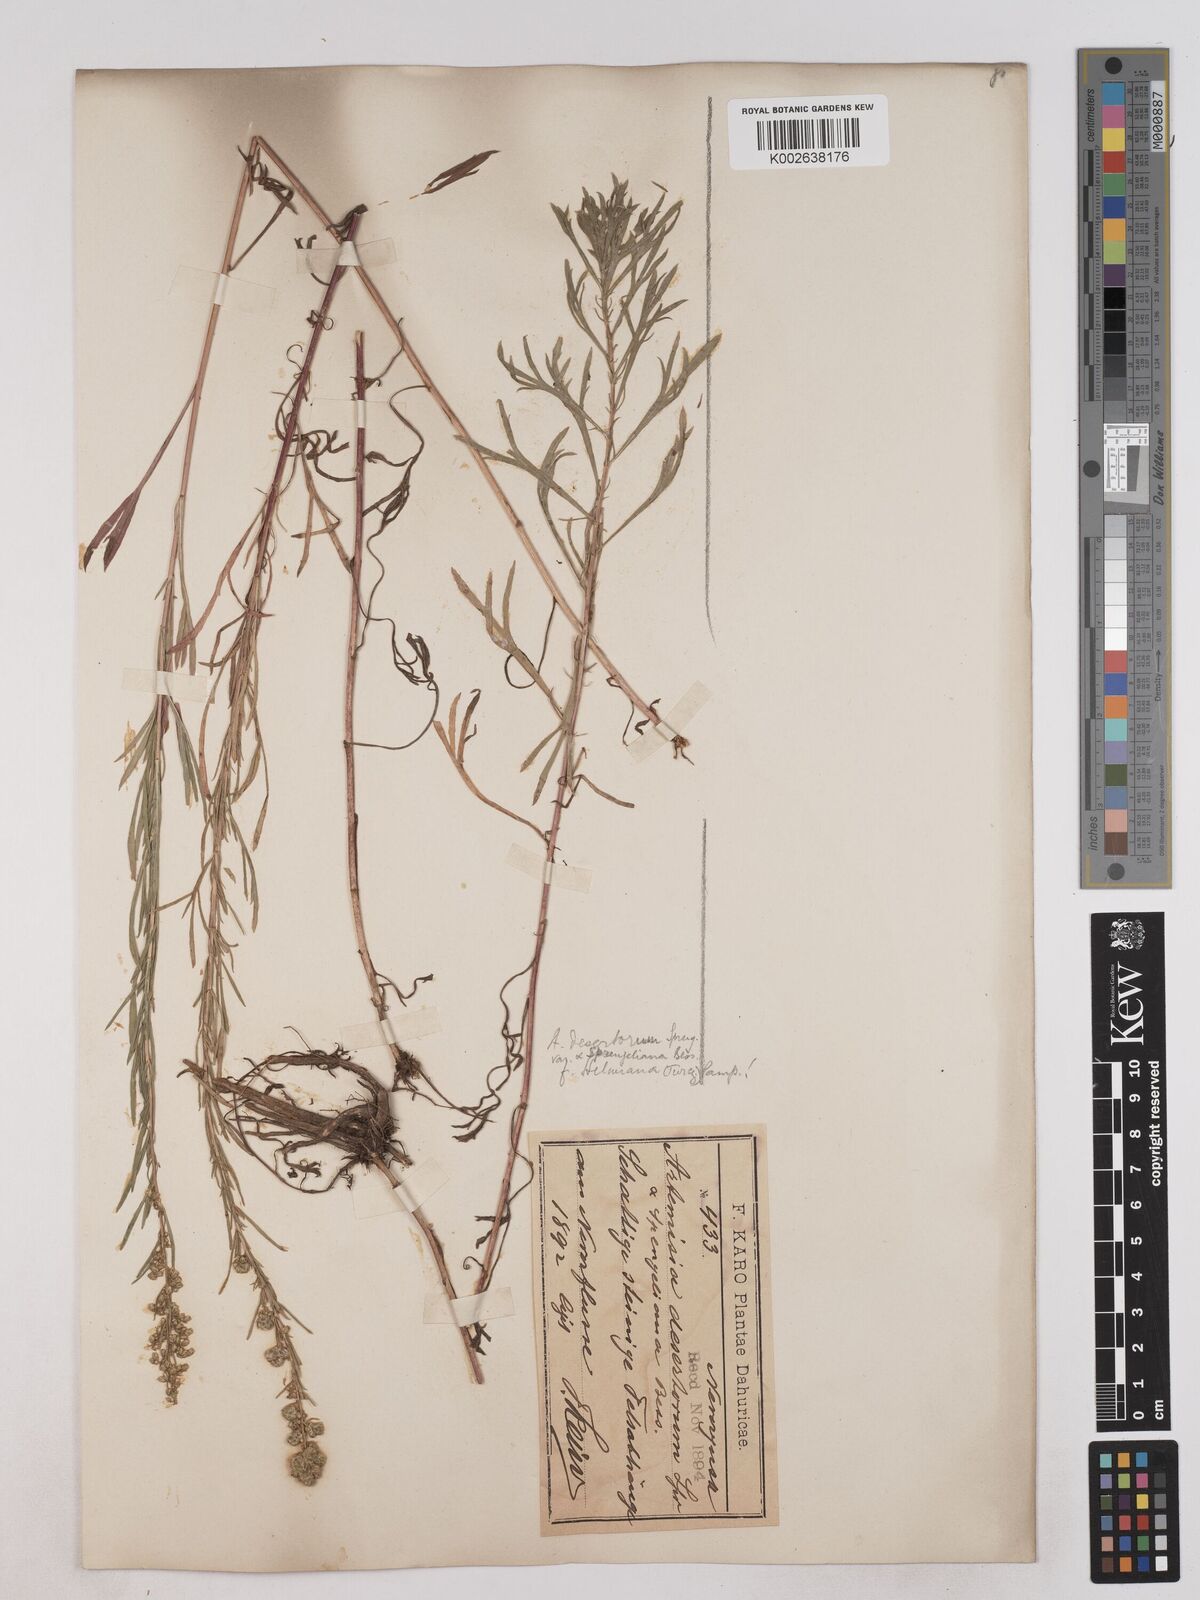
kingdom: Plantae
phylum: Tracheophyta
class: Magnoliopsida
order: Asterales
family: Asteraceae
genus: Artemisia
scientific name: Artemisia desertorum
